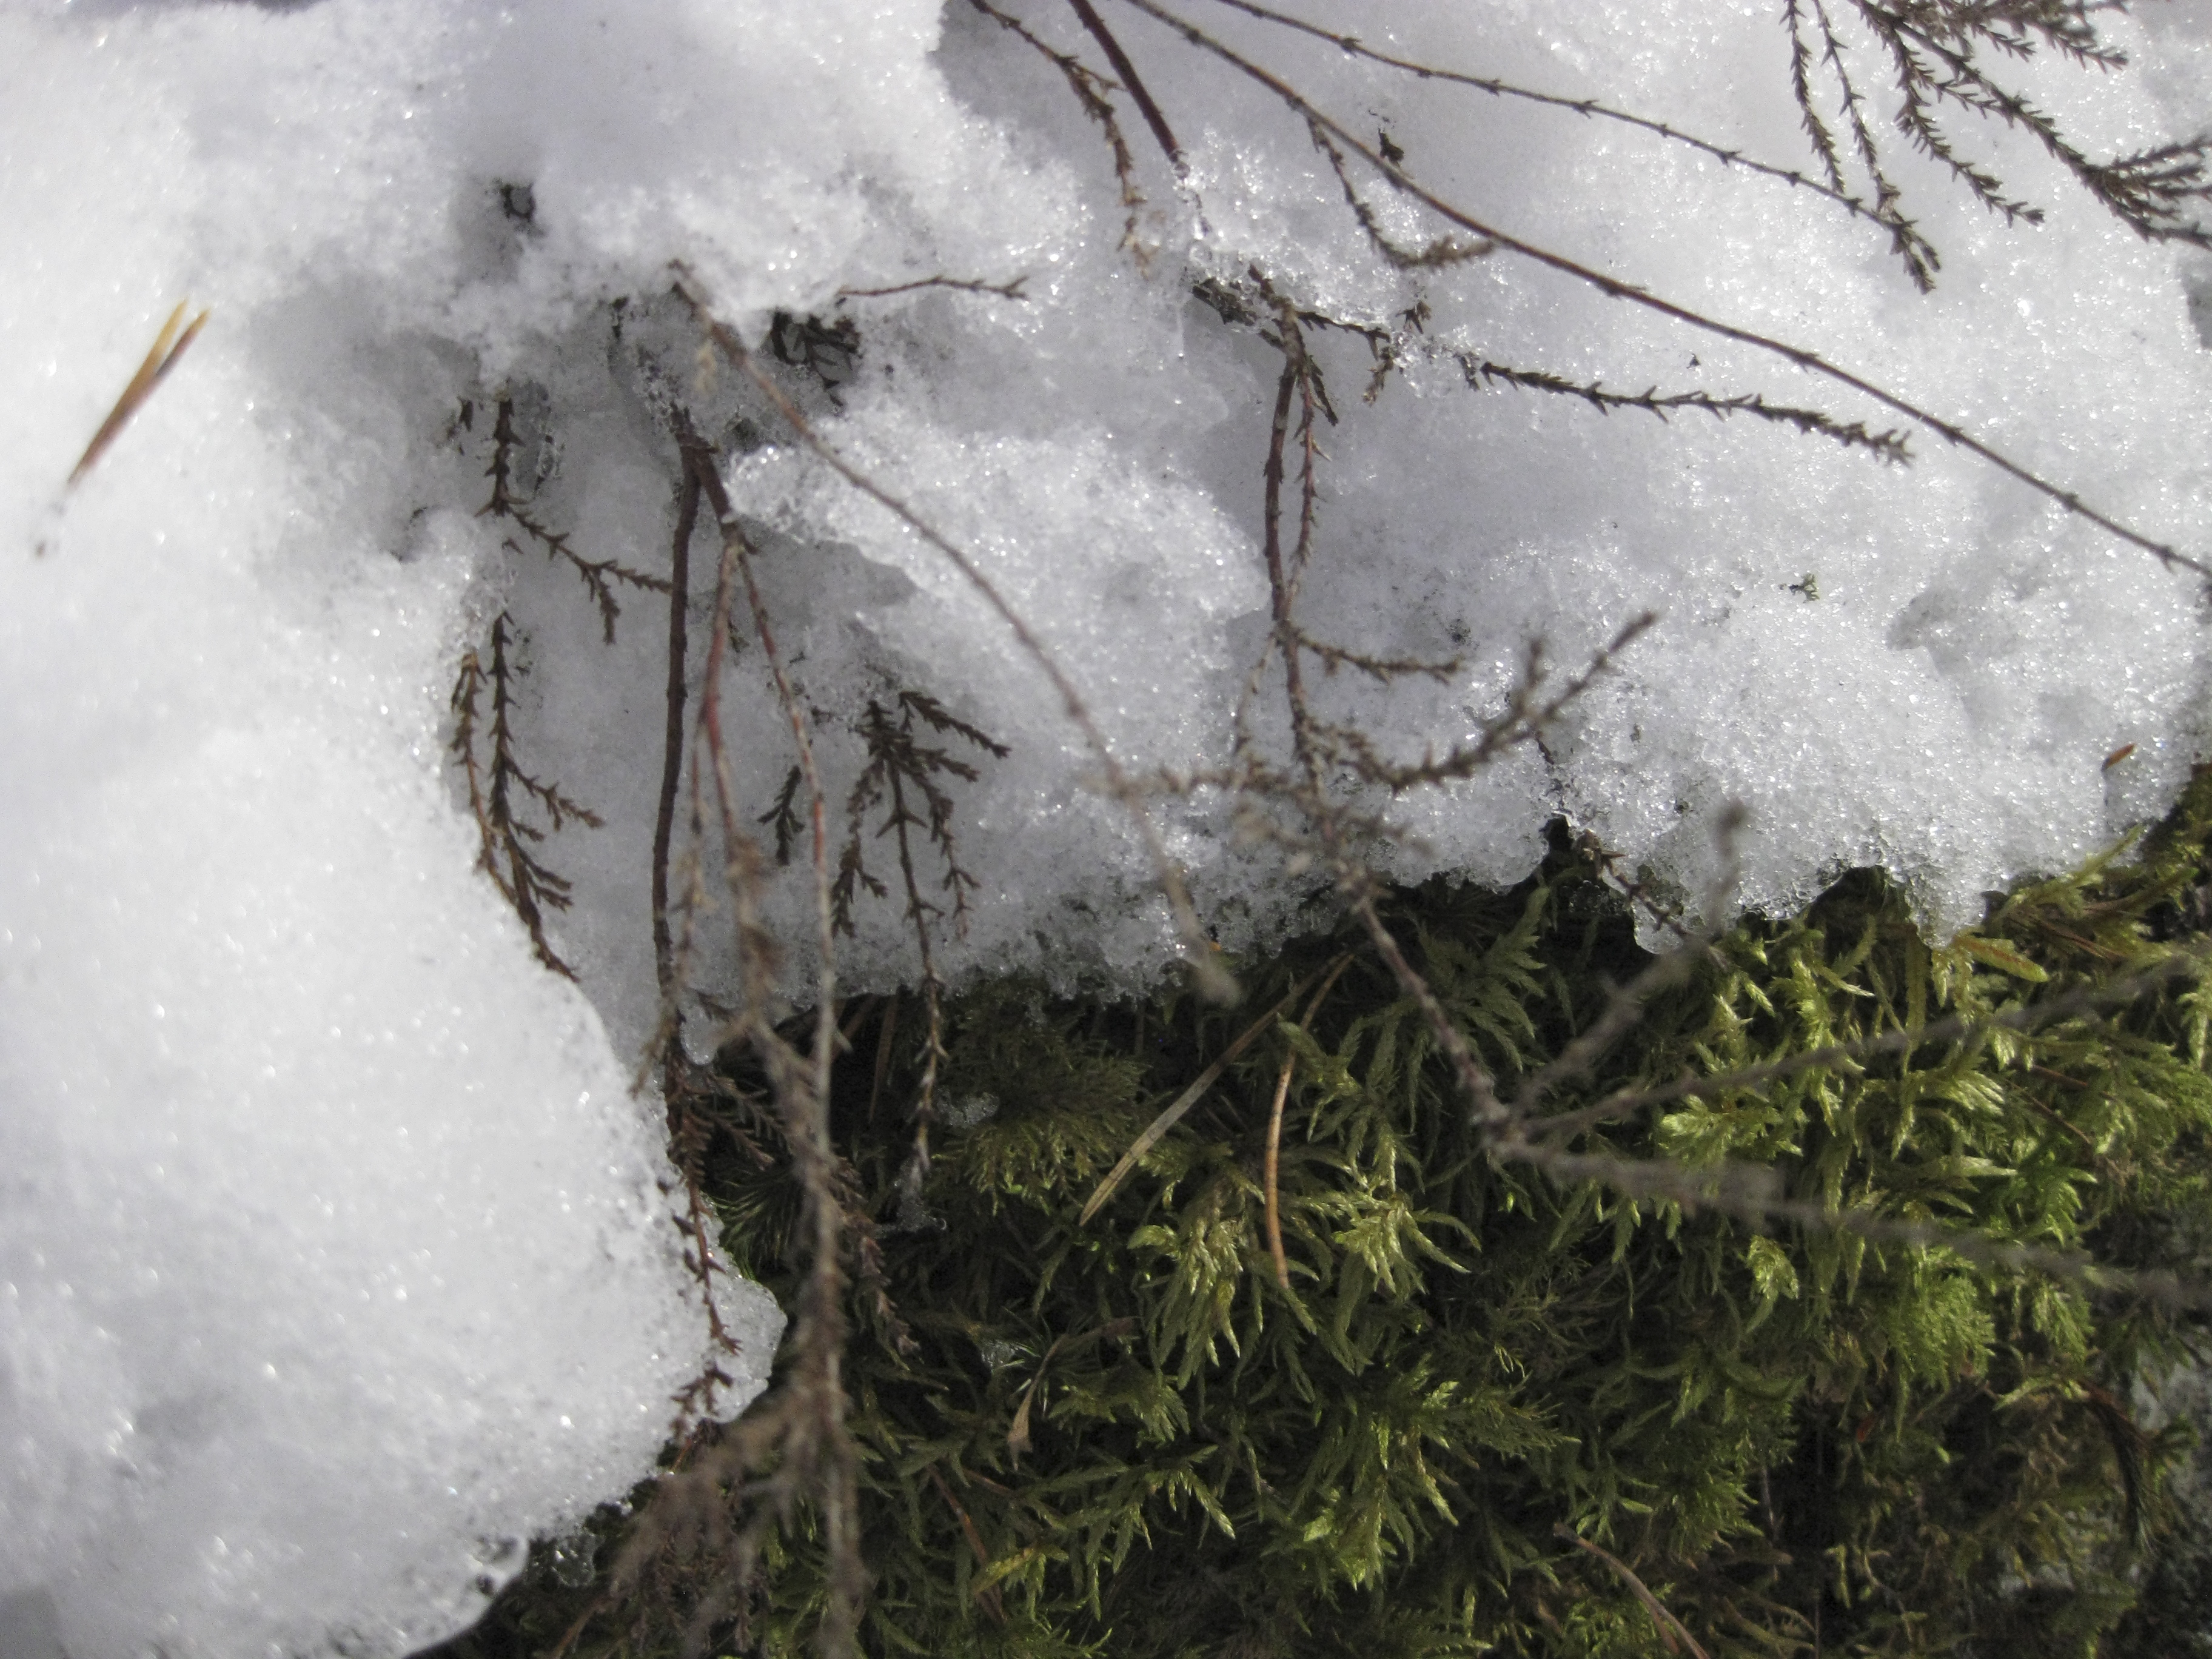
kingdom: Plantae
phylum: Tracheophyta
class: Magnoliopsida
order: Ericales
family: Ericaceae
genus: Calluna
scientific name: Calluna vulgaris
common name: Heather
